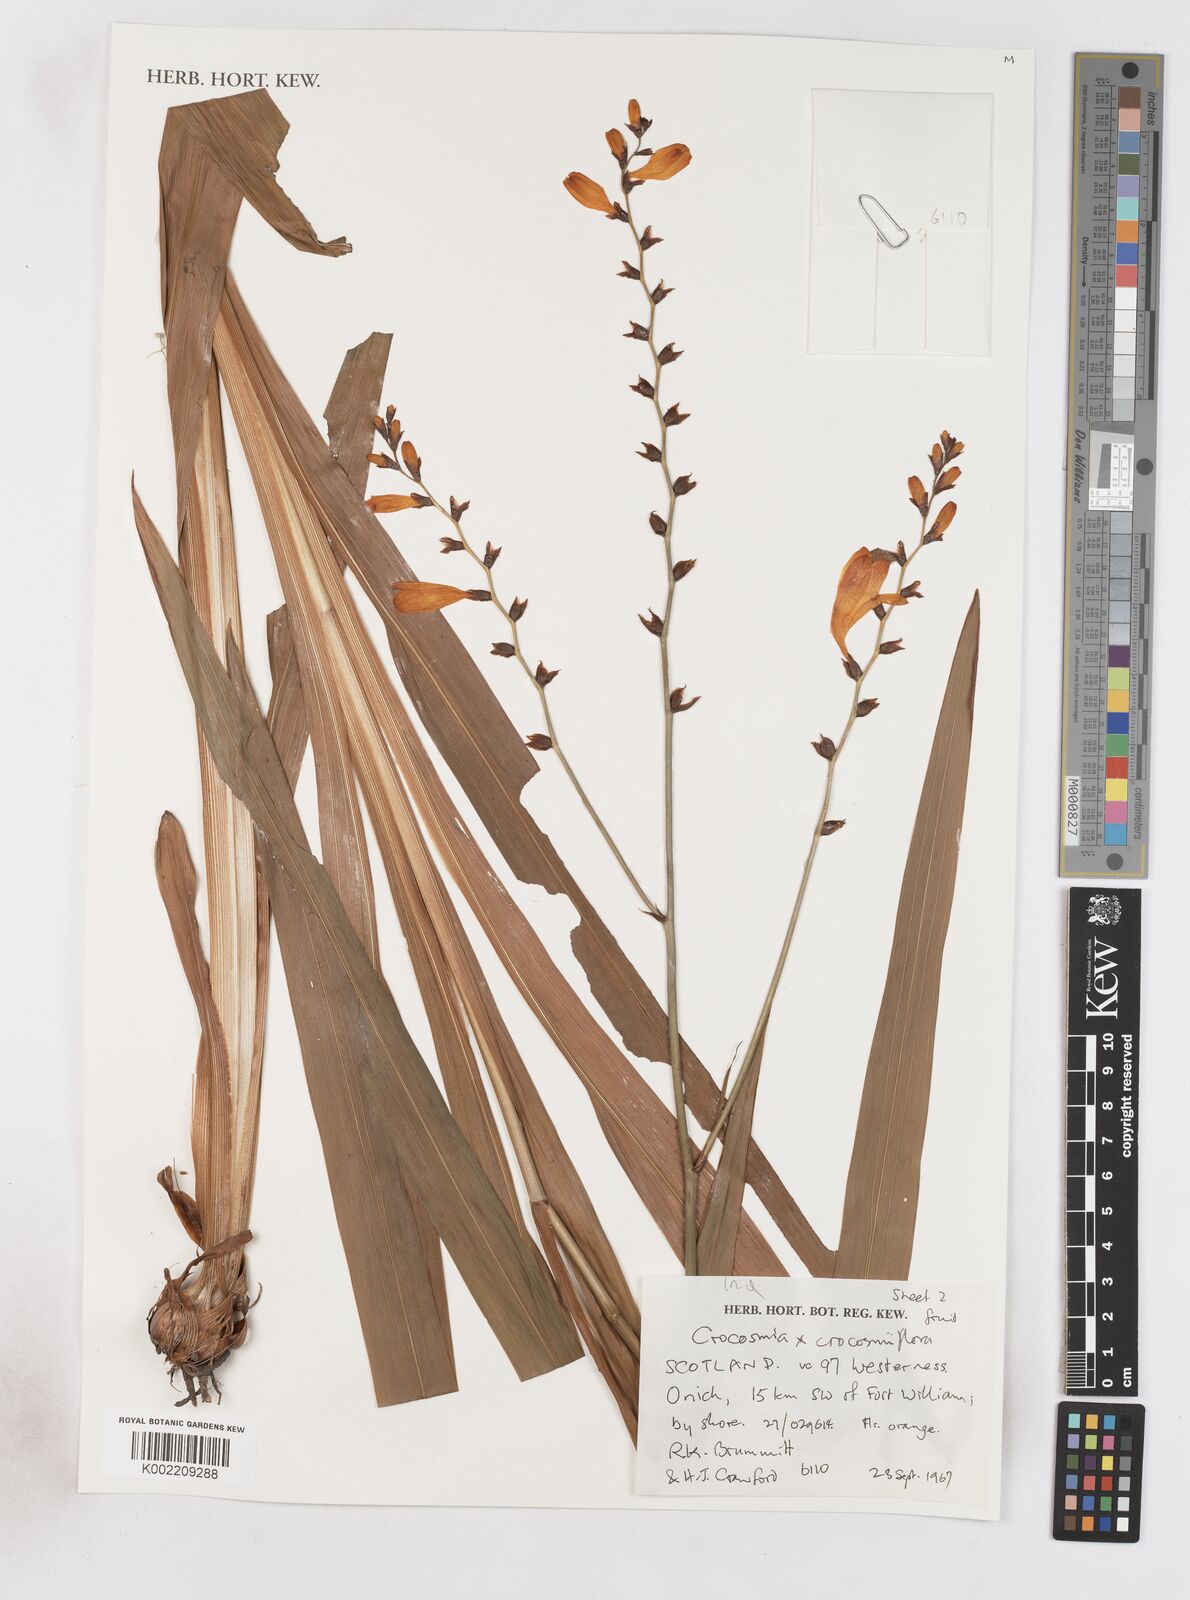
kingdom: Plantae
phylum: Tracheophyta
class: Liliopsida
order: Asparagales
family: Iridaceae
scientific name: Iridaceae
